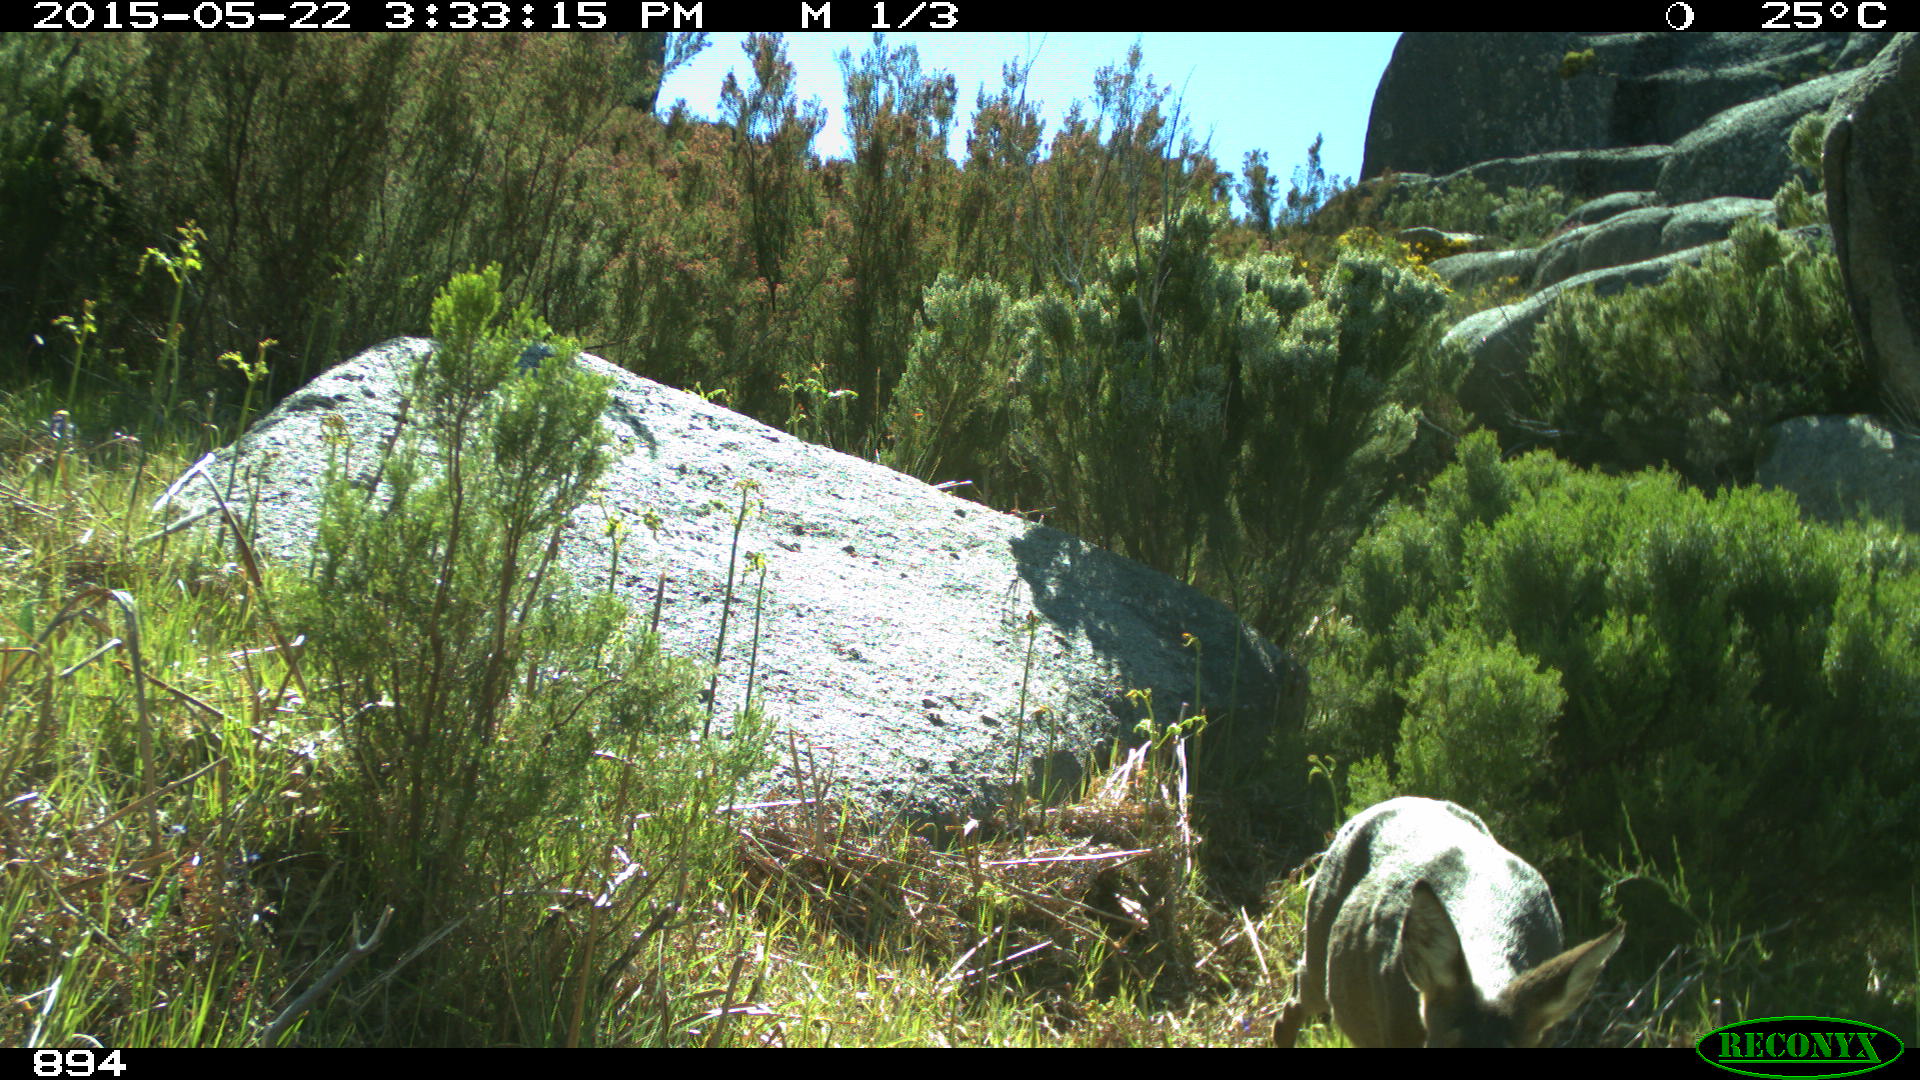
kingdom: Animalia
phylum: Chordata
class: Mammalia
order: Artiodactyla
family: Cervidae
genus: Capreolus
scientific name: Capreolus capreolus
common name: Western roe deer
